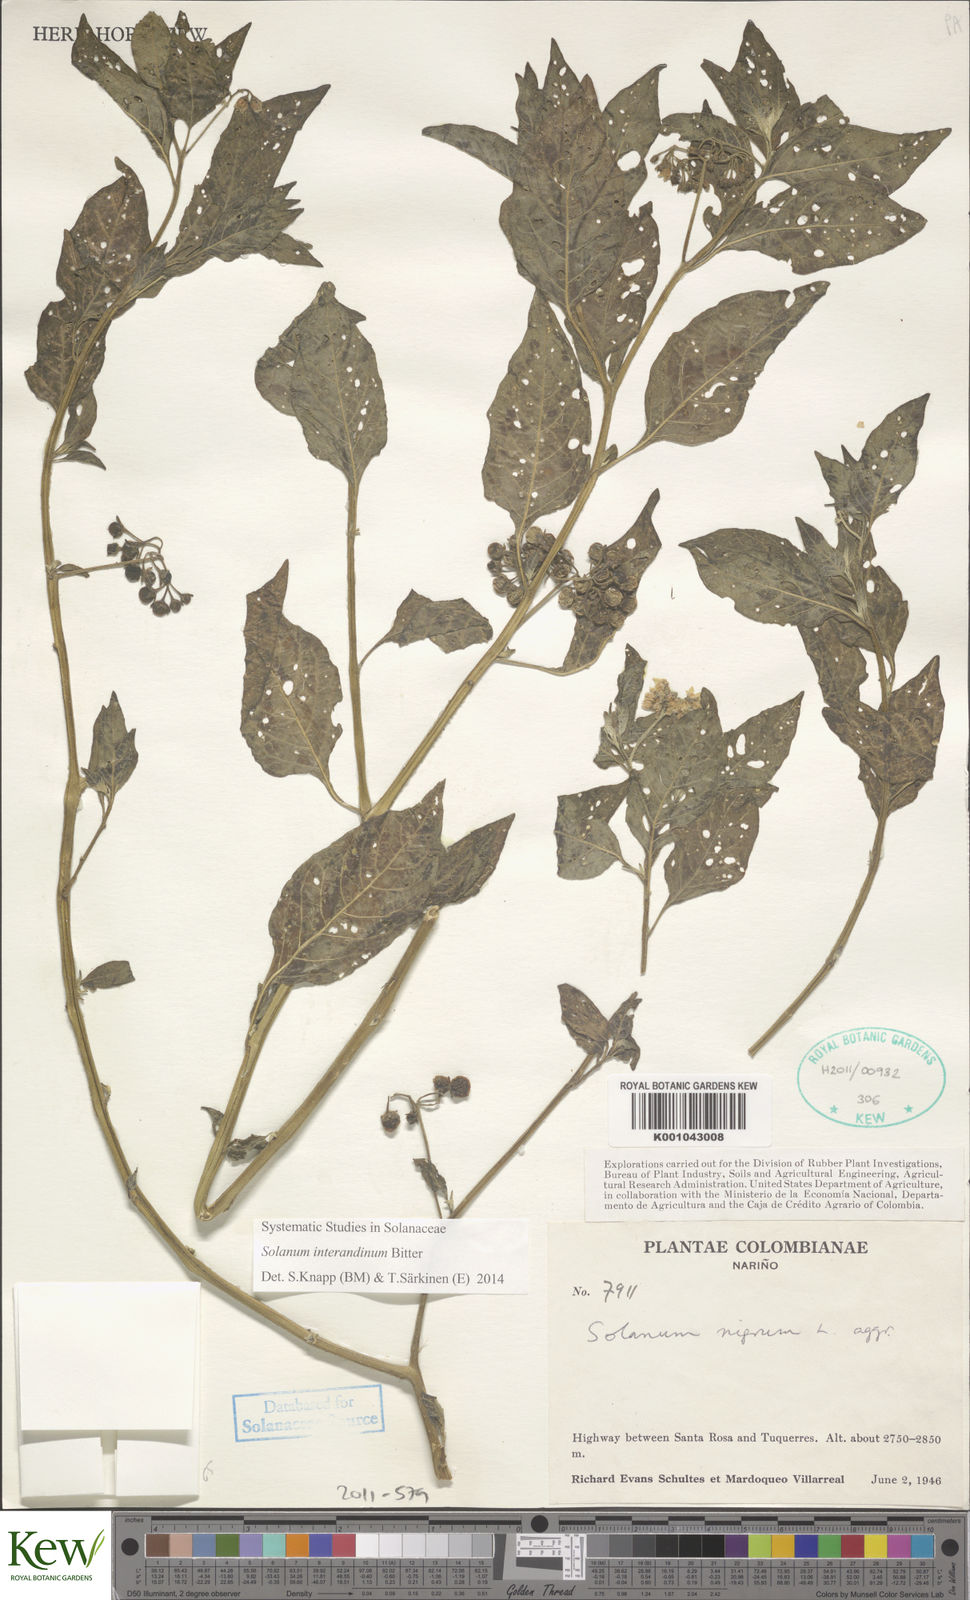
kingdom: Plantae
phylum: Tracheophyta
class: Magnoliopsida
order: Solanales
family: Solanaceae
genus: Solanum
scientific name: Solanum aloysiifolium
